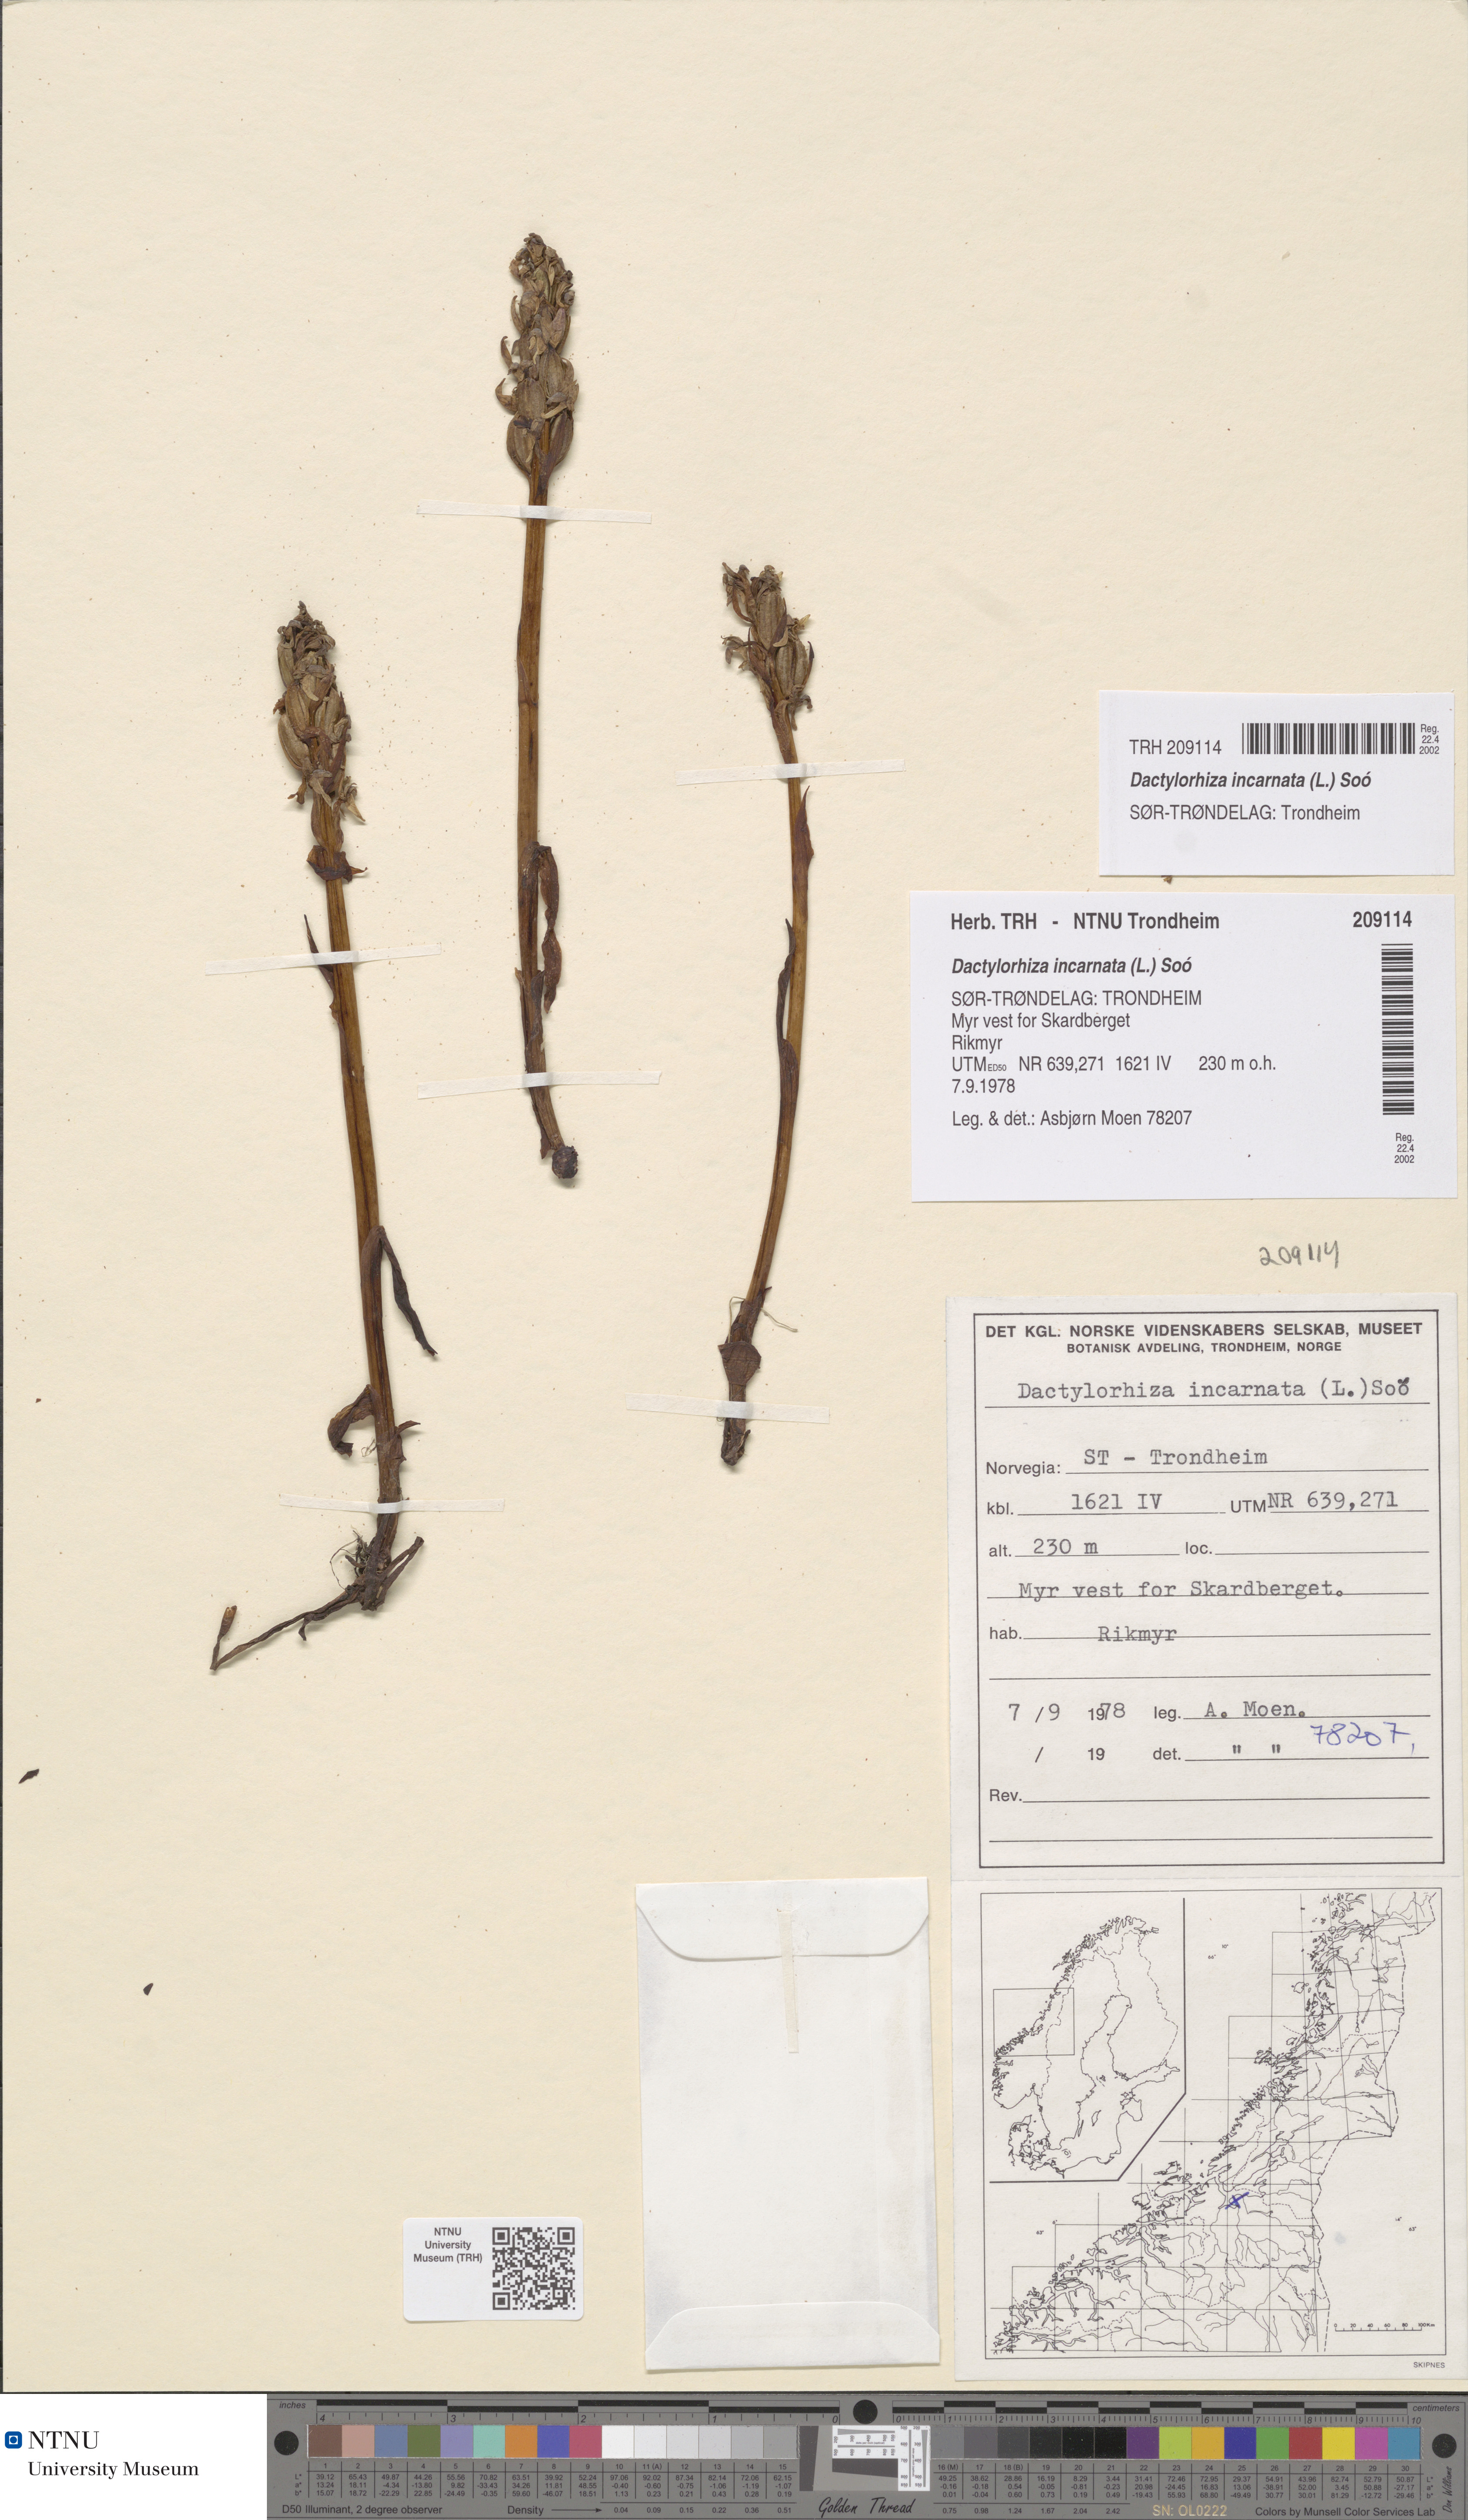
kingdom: Plantae
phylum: Tracheophyta
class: Liliopsida
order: Asparagales
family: Orchidaceae
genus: Dactylorhiza
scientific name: Dactylorhiza incarnata
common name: Early marsh-orchid
